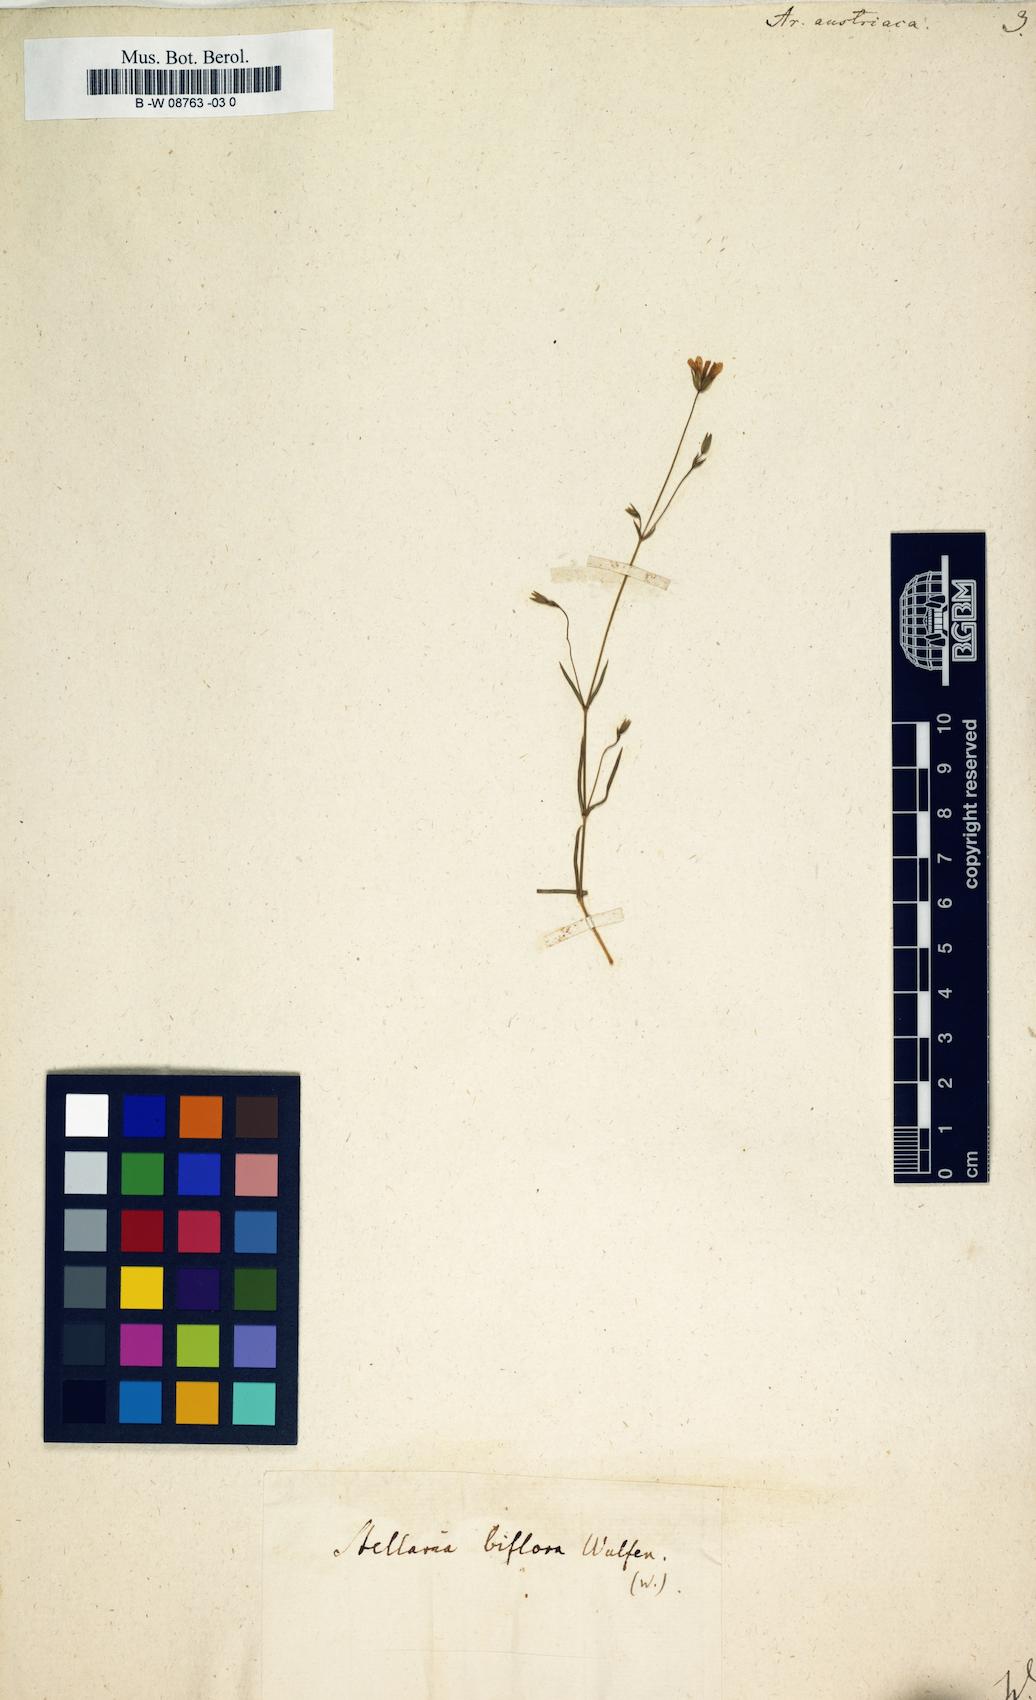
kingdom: Plantae
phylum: Tracheophyta
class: Magnoliopsida
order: Caryophyllales
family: Caryophyllaceae
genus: Sabulina
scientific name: Sabulina austriaca
